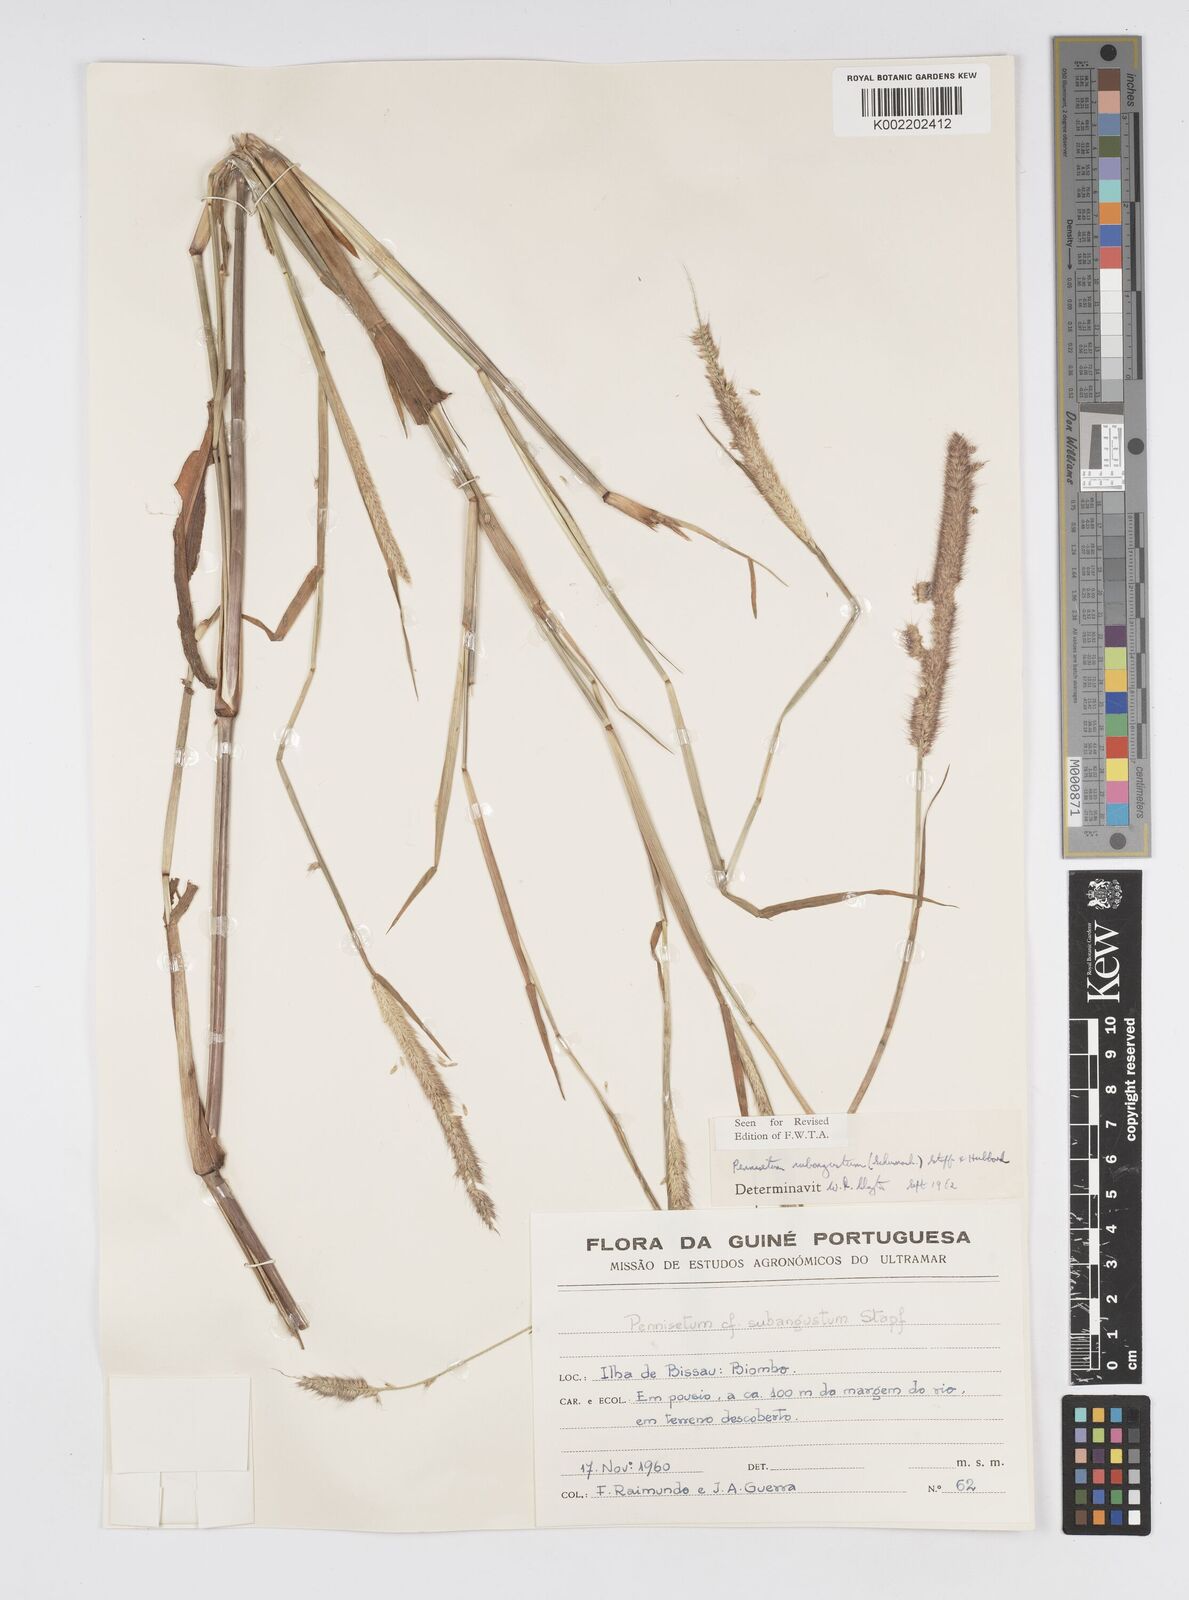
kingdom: Plantae
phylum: Tracheophyta
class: Liliopsida
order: Poales
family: Poaceae
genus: Setaria
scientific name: Setaria parviflora
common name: Knotroot bristle-grass
